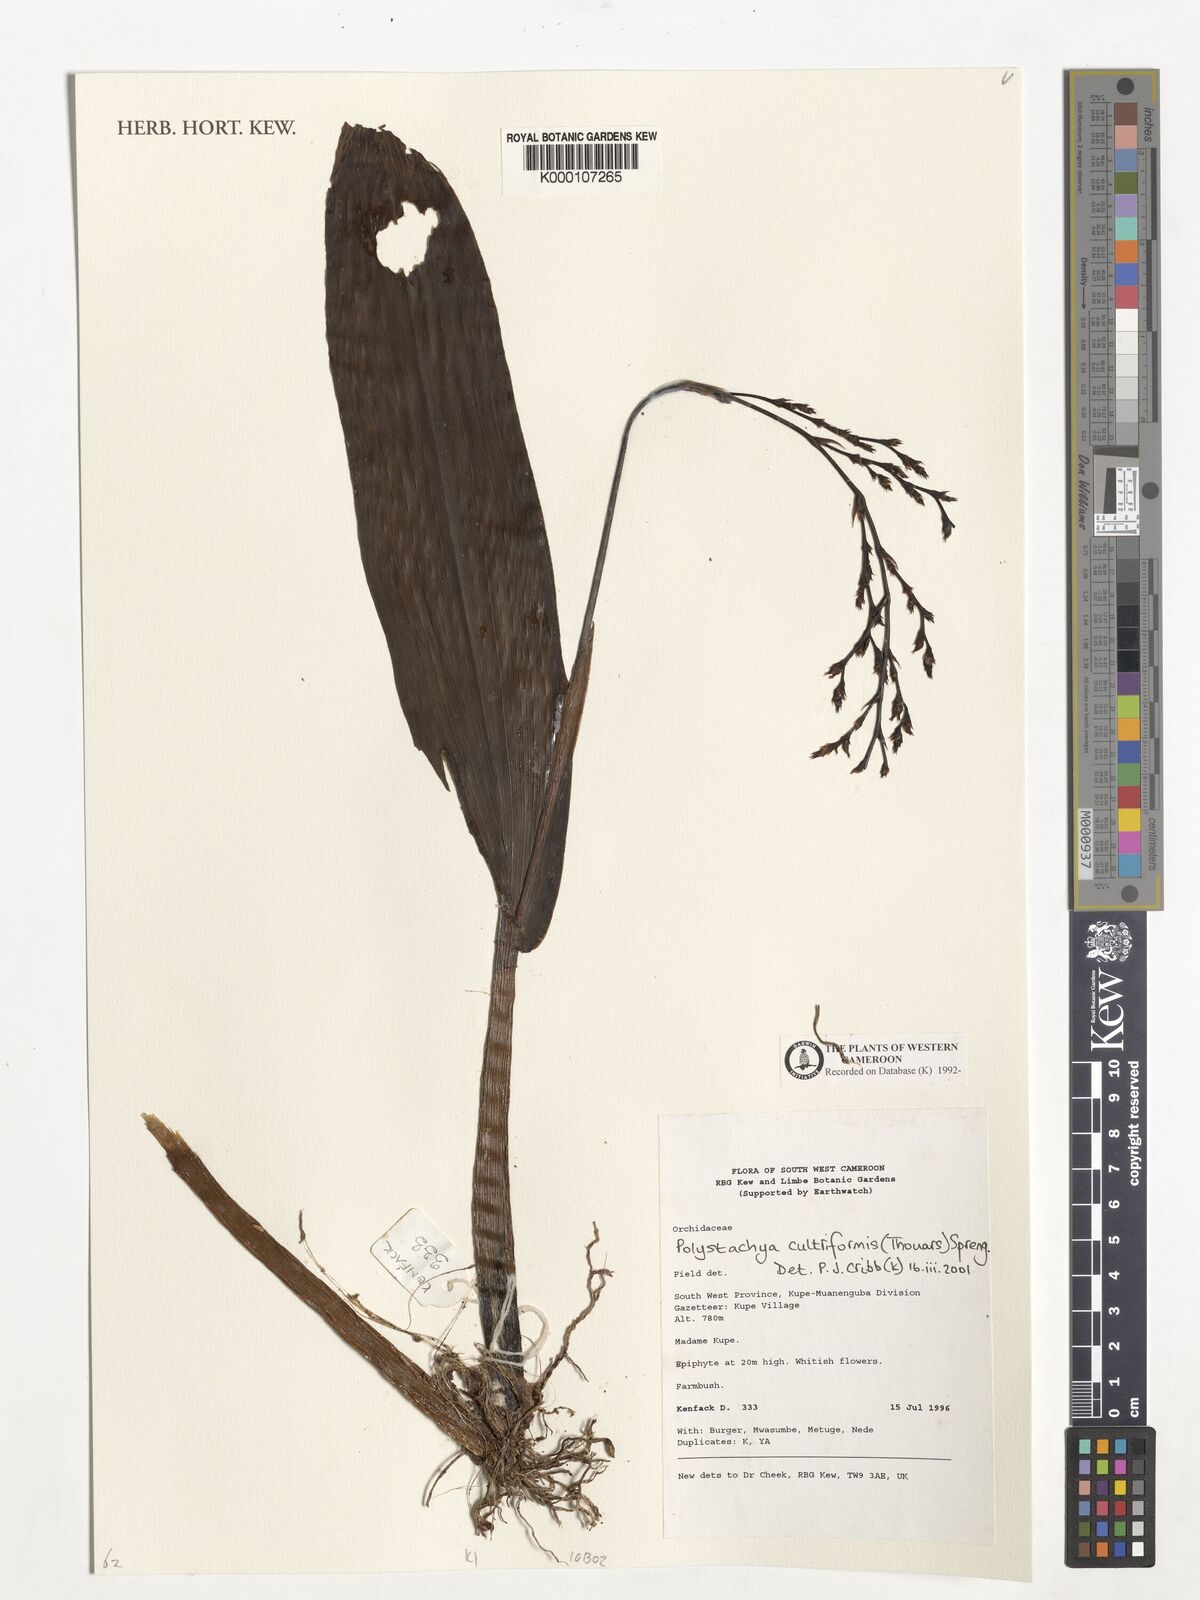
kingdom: Plantae
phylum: Tracheophyta
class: Liliopsida
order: Asparagales
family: Orchidaceae
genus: Polystachya
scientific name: Polystachya cultriformis
